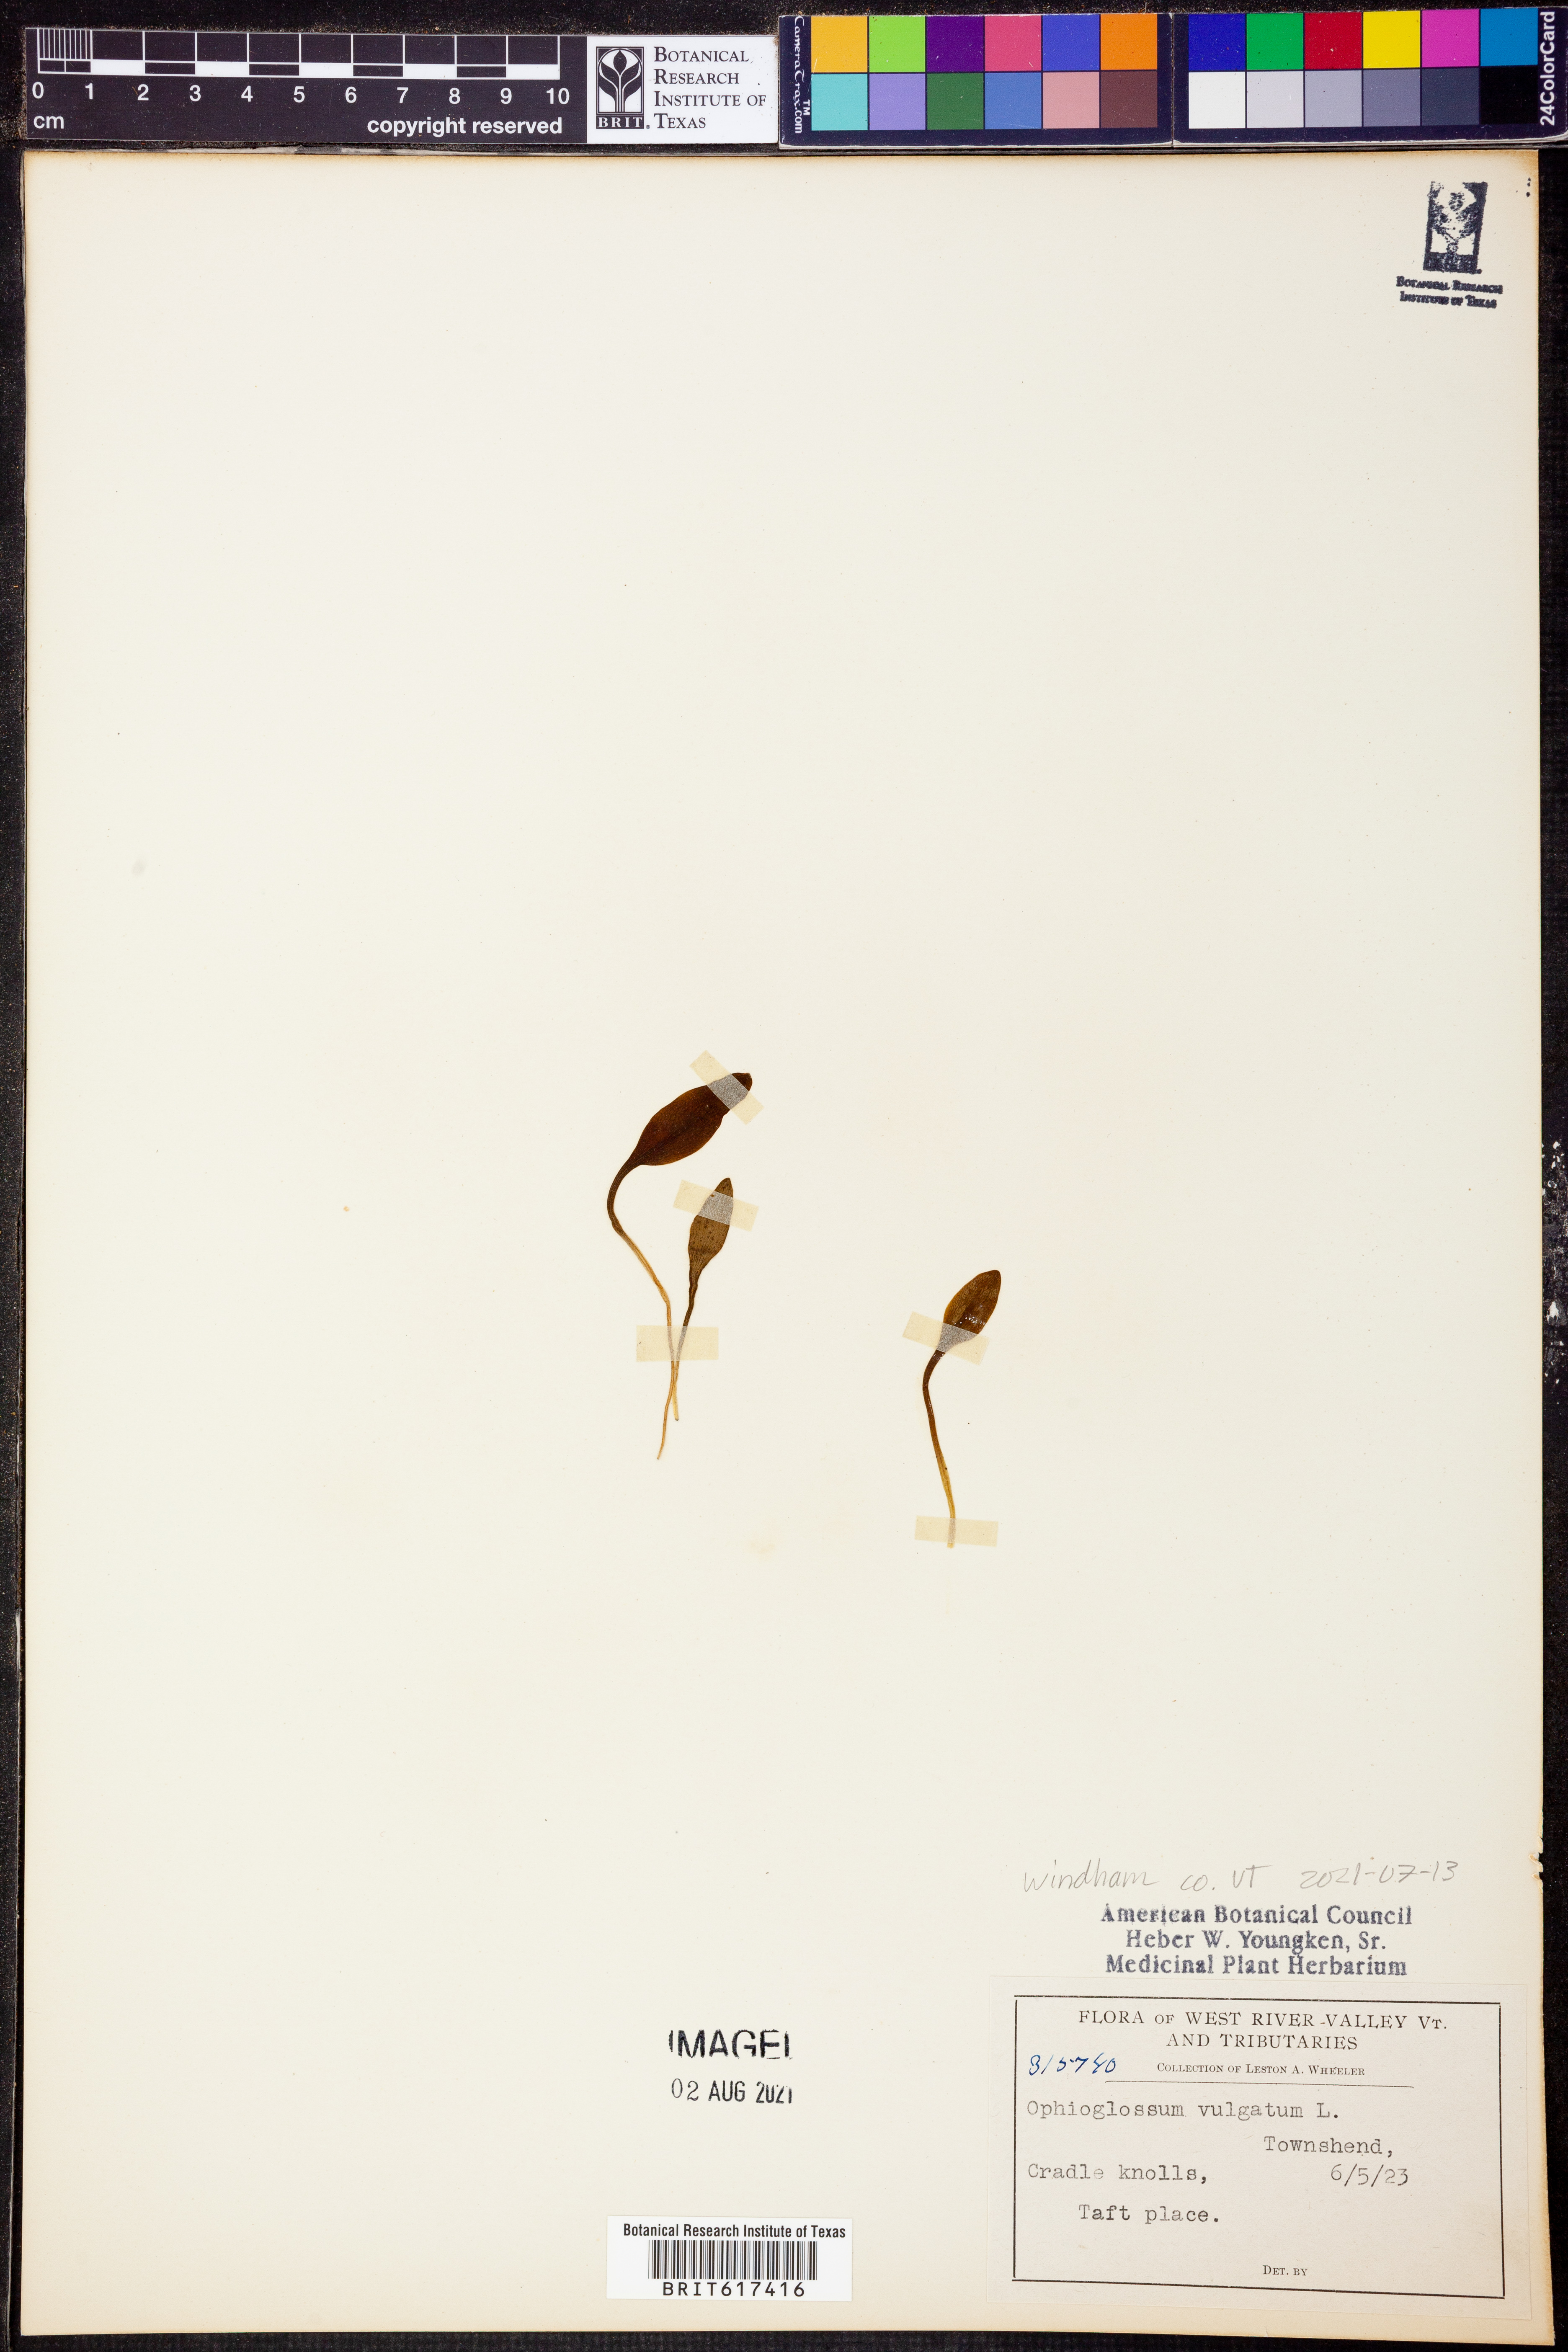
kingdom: Plantae
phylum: Tracheophyta
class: Polypodiopsida
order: Ophioglossales
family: Ophioglossaceae
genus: Ophioglossum
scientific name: Ophioglossum vulgatum
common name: Adder's-tongue
